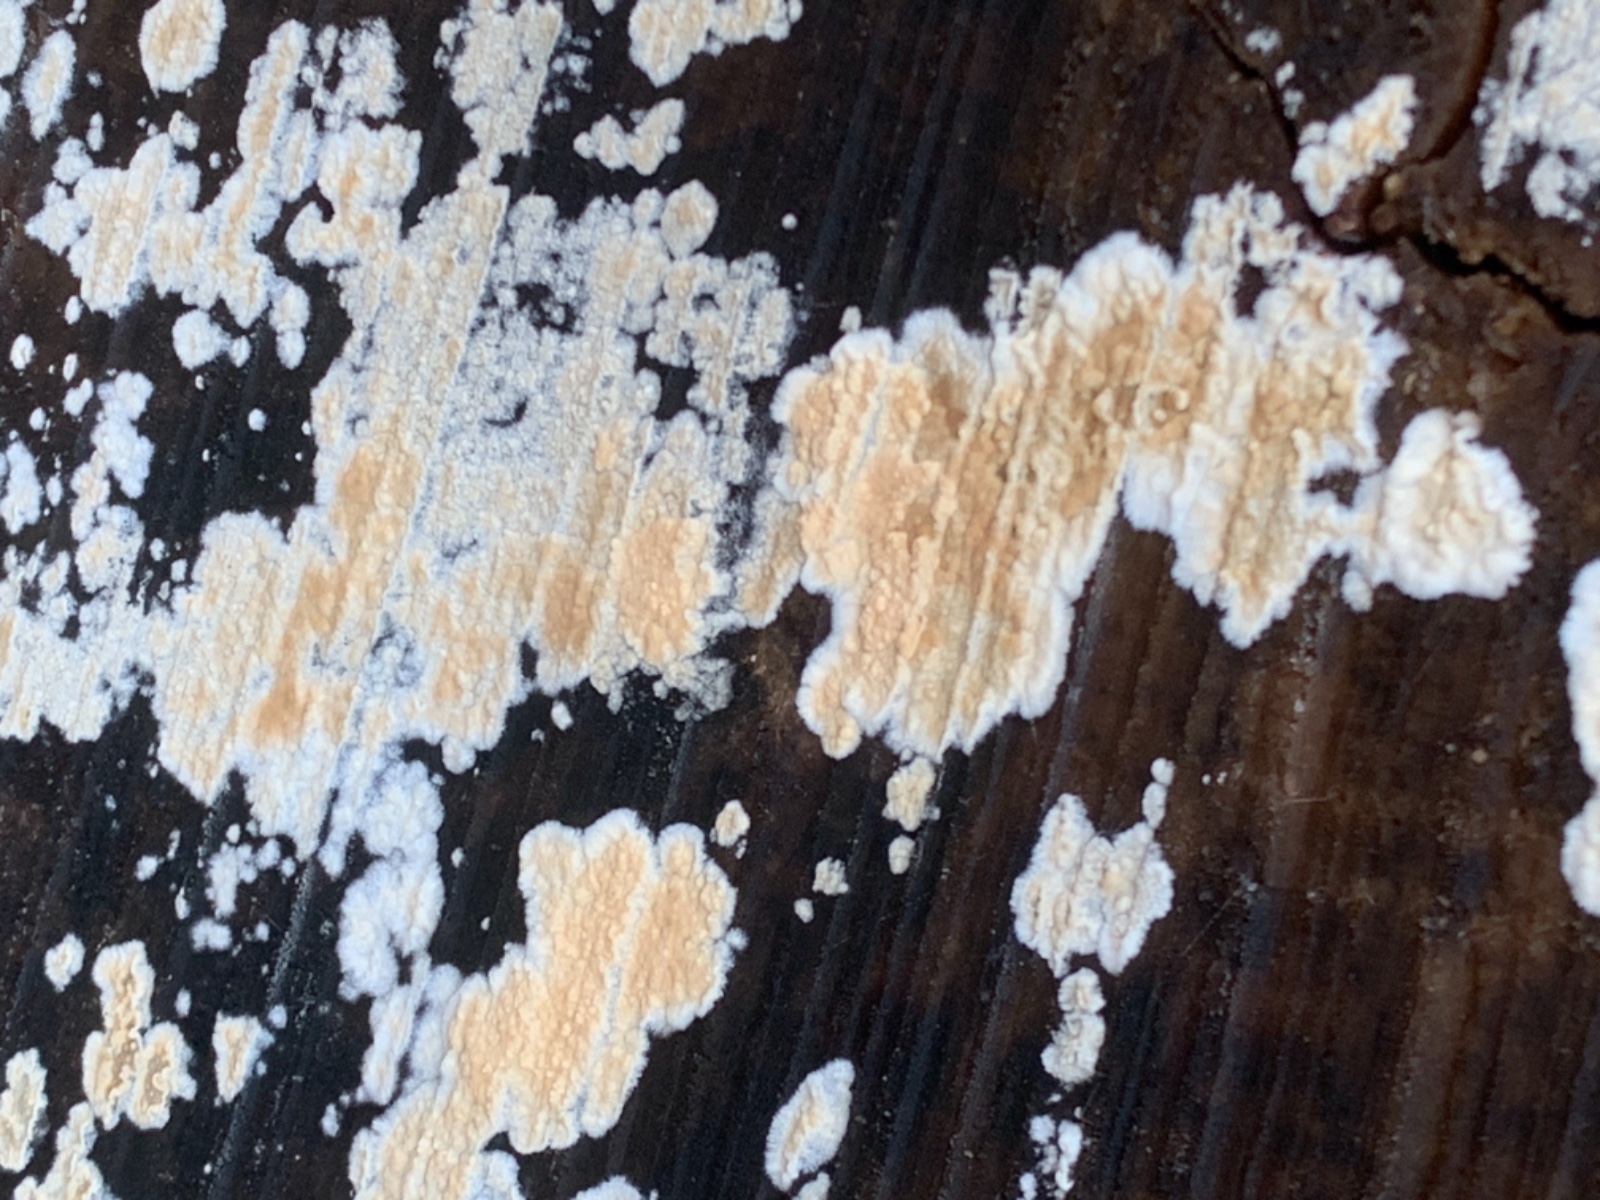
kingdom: Fungi
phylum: Basidiomycota
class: Agaricomycetes
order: Agaricales
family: Physalacriaceae
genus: Cylindrobasidium
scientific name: Cylindrobasidium evolvens
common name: sprækkehinde
